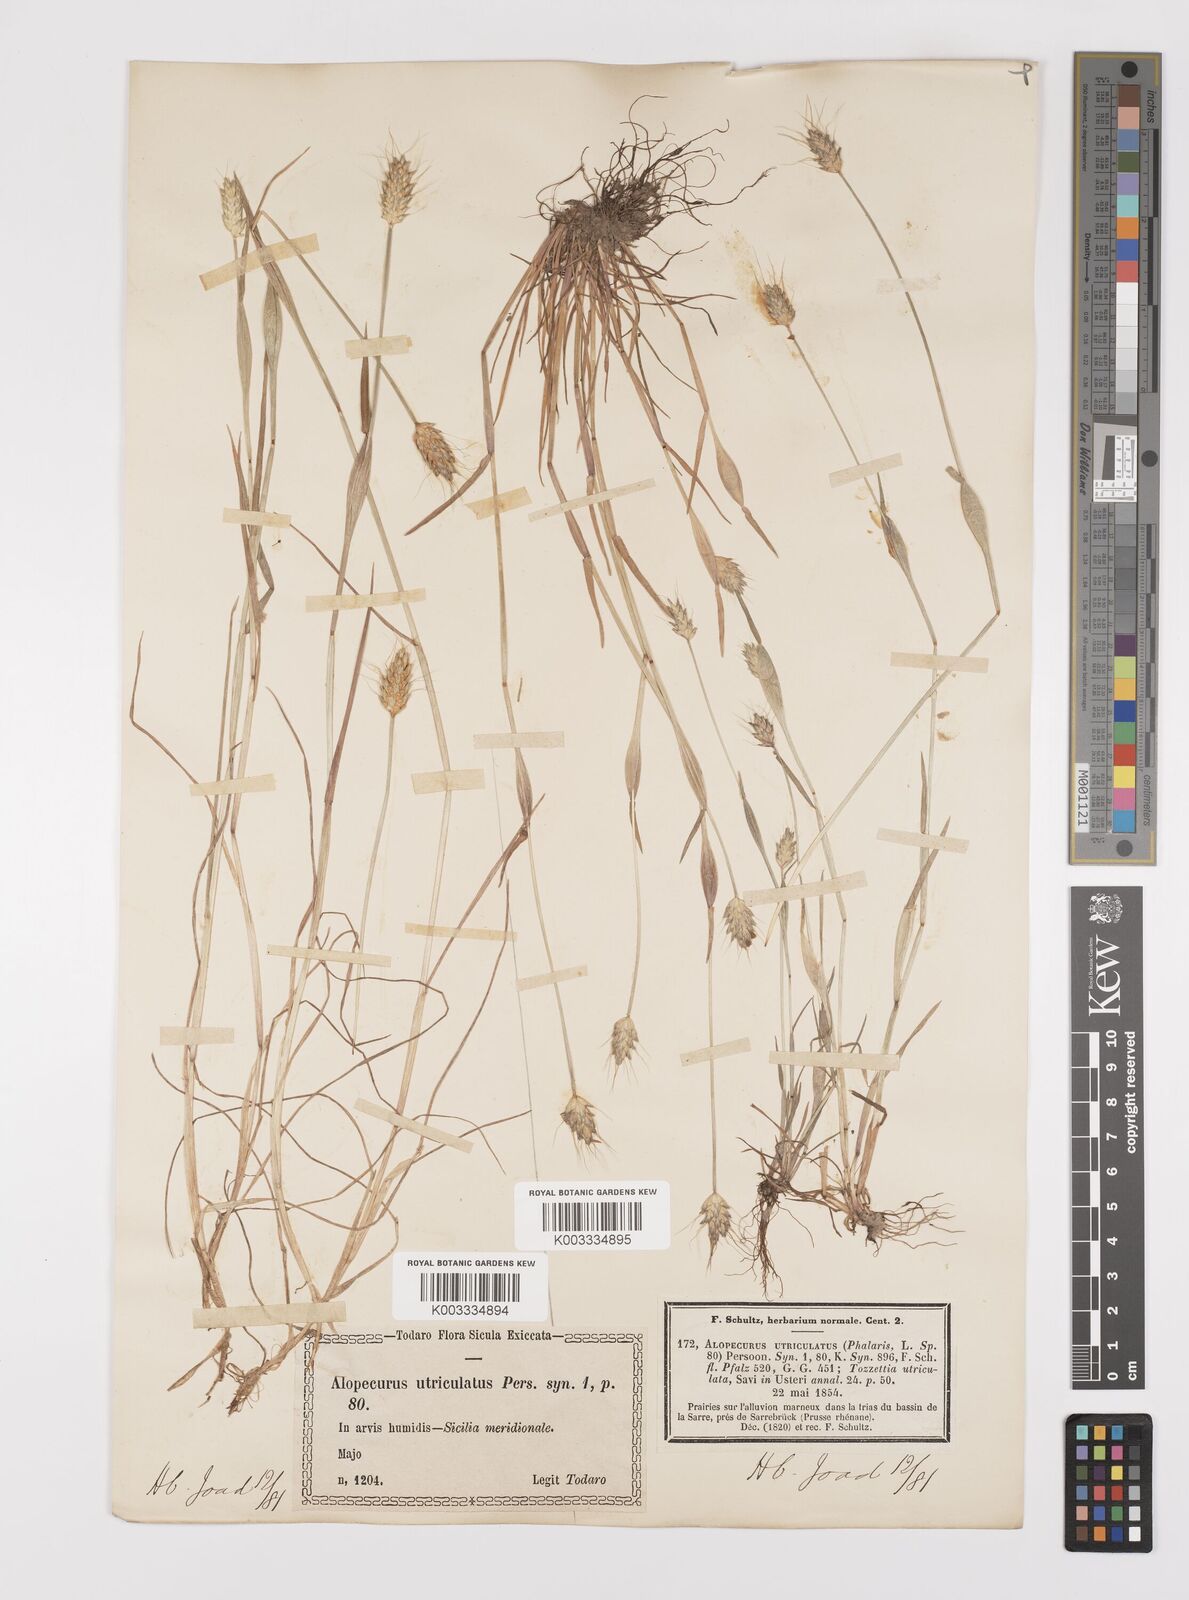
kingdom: Plantae
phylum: Tracheophyta
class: Liliopsida
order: Poales
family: Poaceae
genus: Alopecurus
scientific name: Alopecurus rendlei
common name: Rendle's meadow foxtail
